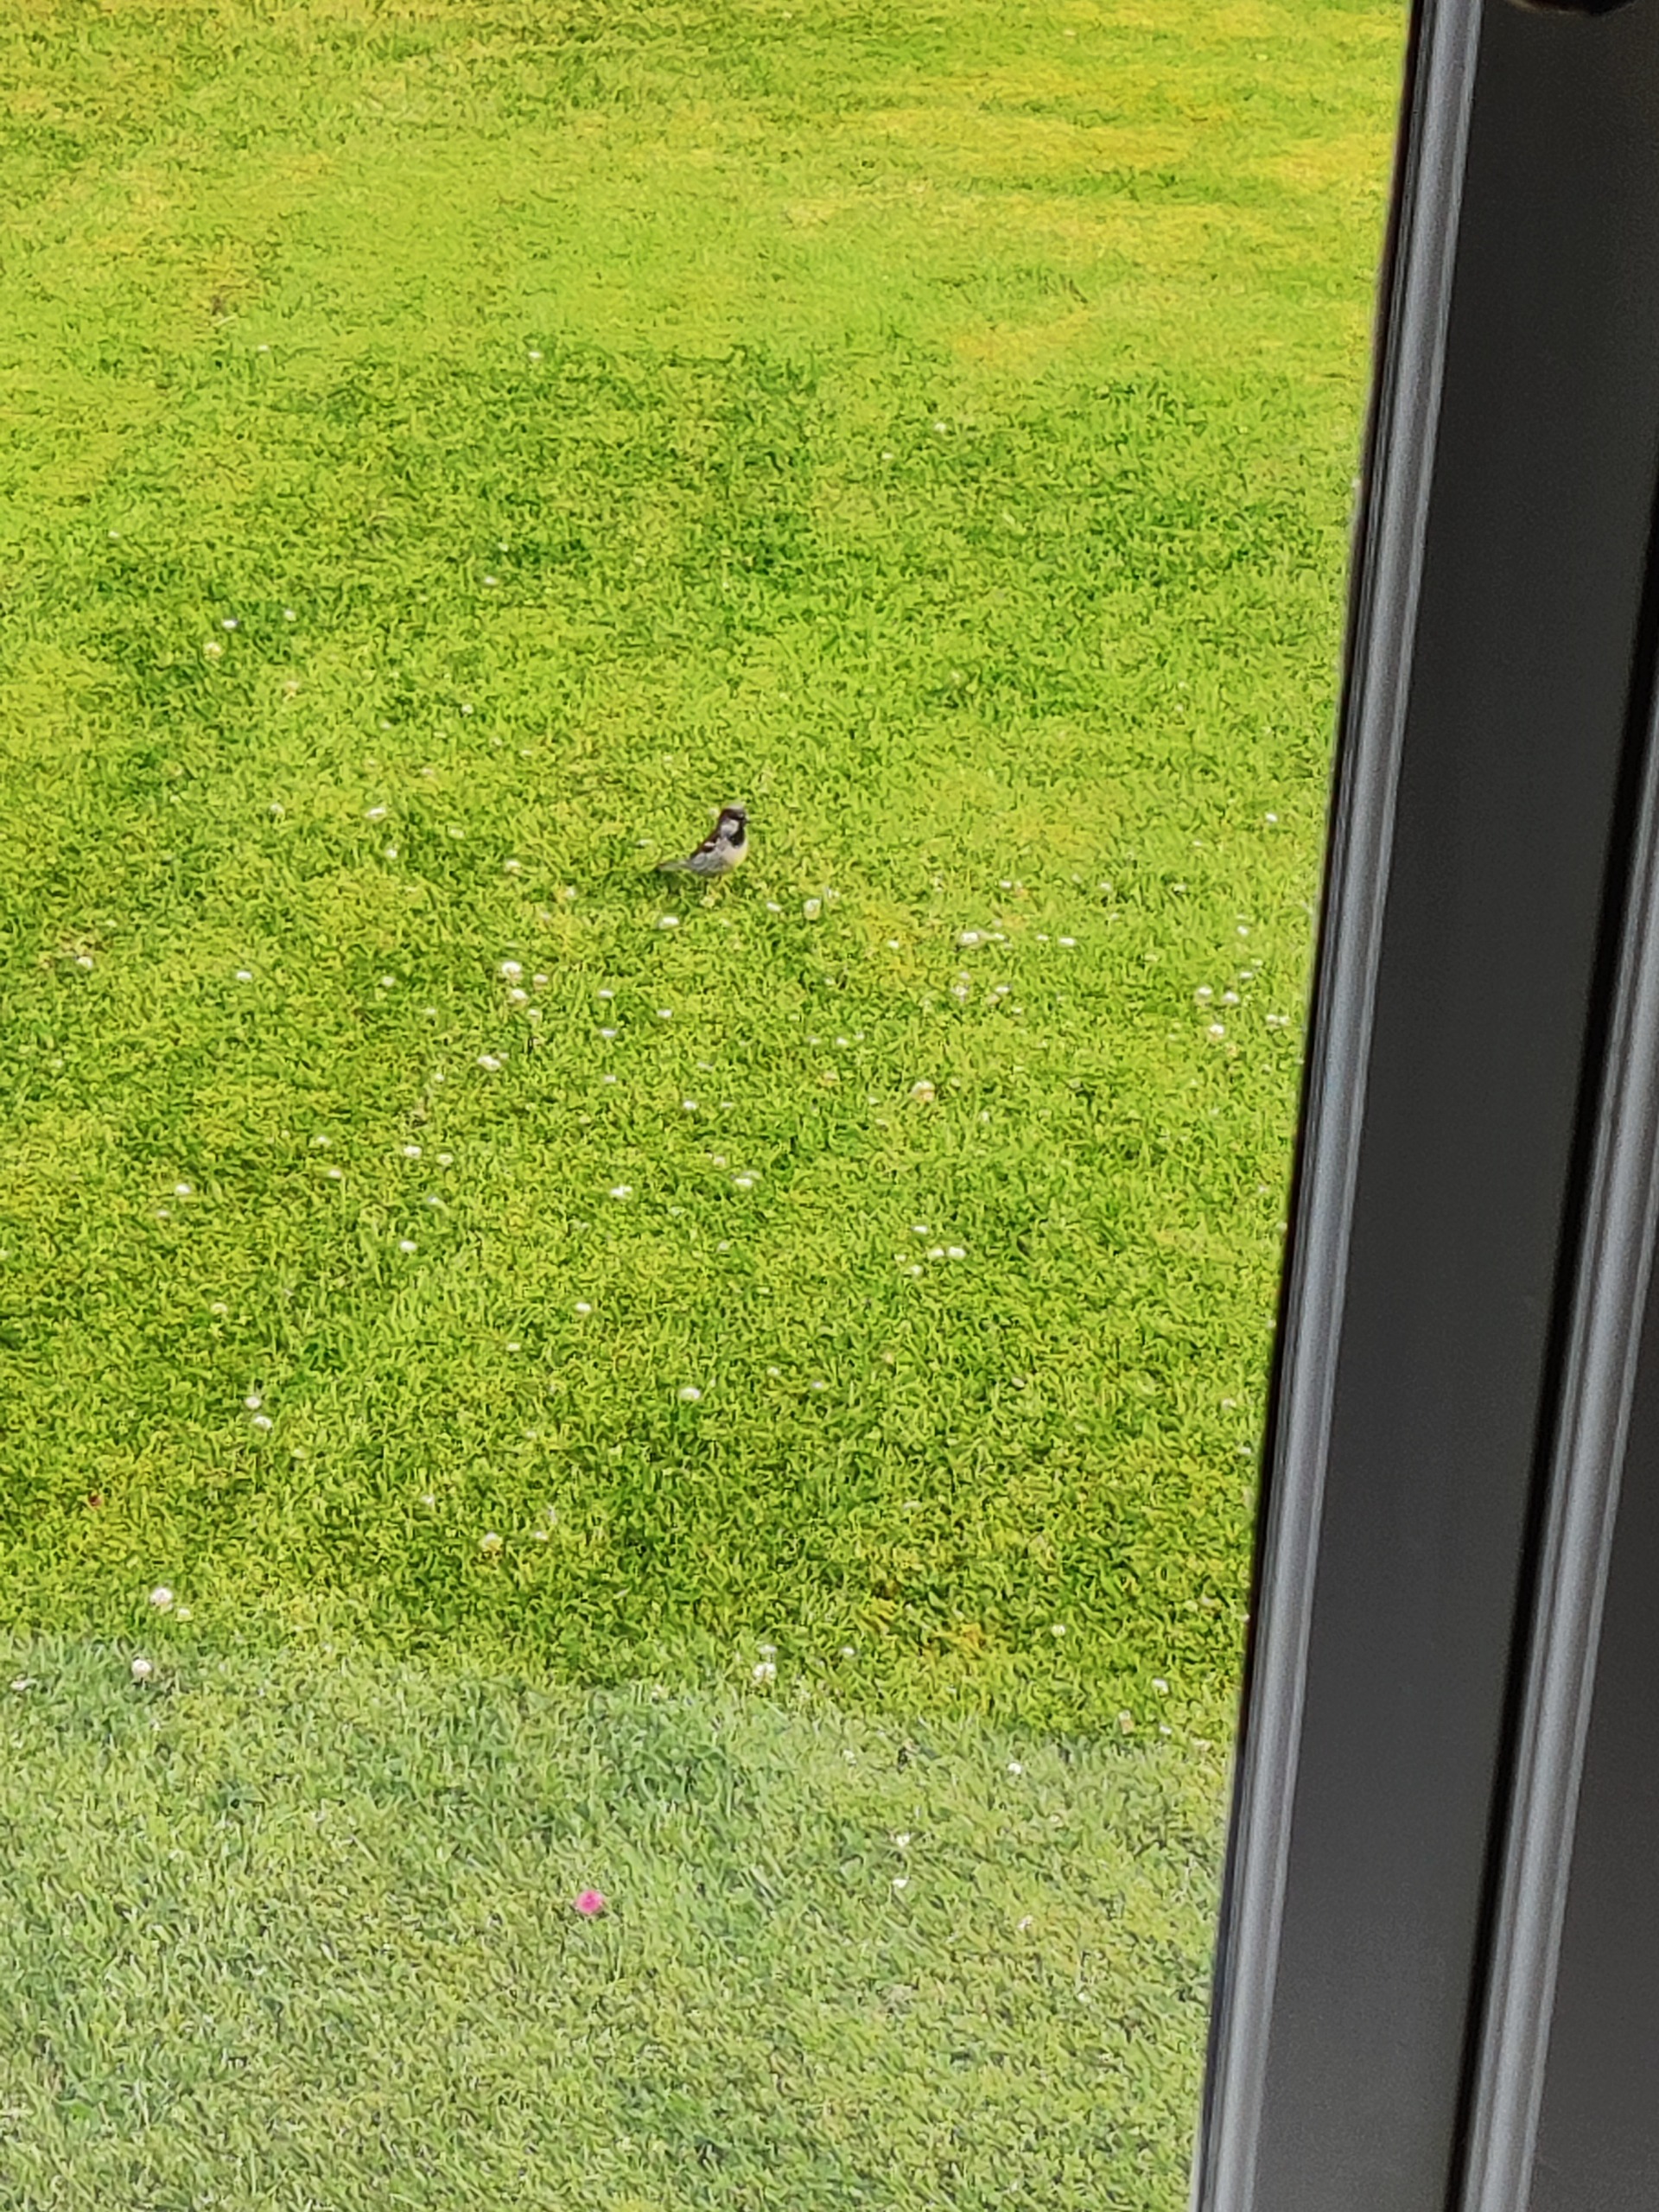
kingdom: Animalia
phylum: Chordata
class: Aves
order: Passeriformes
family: Passeridae
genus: Passer
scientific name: Passer domesticus
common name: Gråspurv
